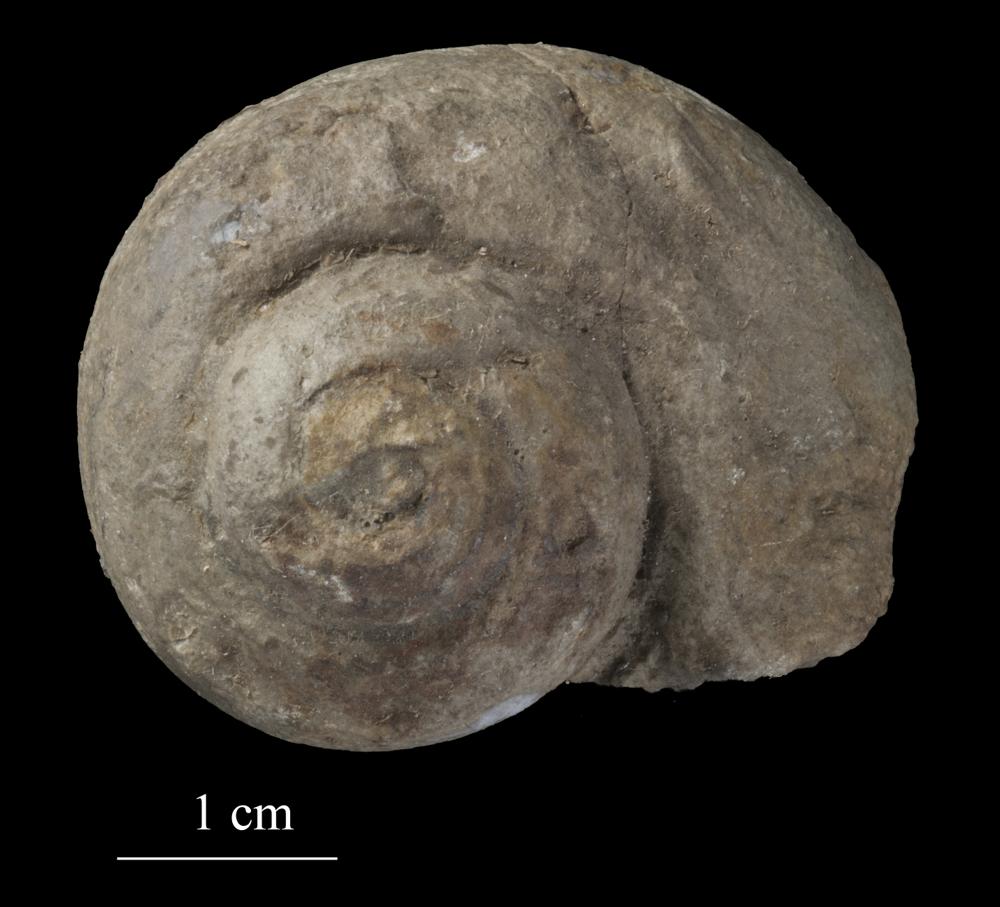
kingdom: Animalia
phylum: Mollusca
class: Gastropoda
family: Euomphalidae
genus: Euomphalopterus
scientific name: Euomphalopterus
